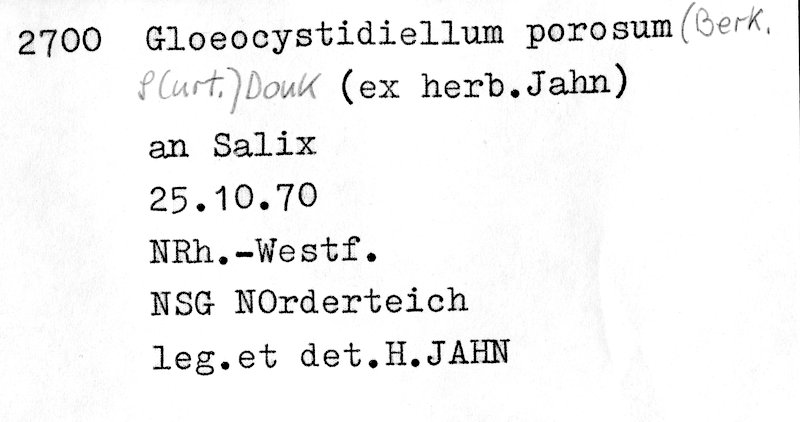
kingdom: Plantae
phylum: Tracheophyta
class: Magnoliopsida
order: Malpighiales
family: Salicaceae
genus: Salix
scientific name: Salix
